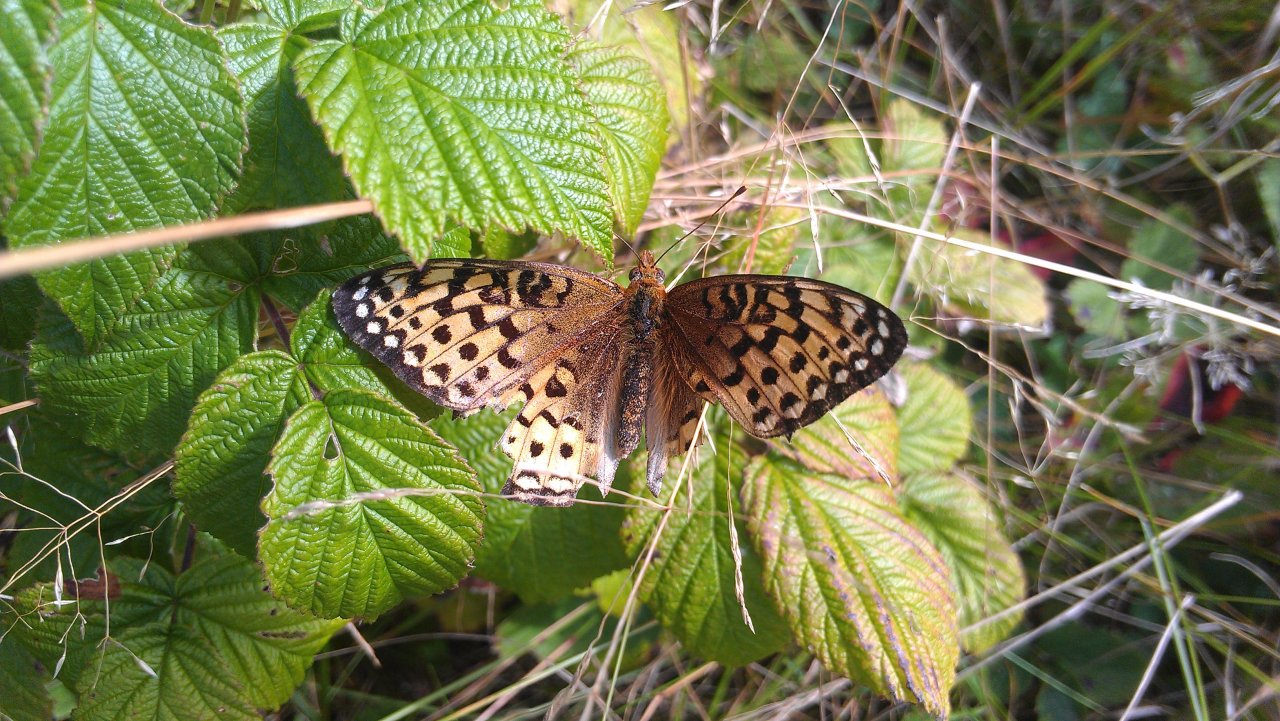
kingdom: Animalia
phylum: Arthropoda
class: Insecta
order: Lepidoptera
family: Nymphalidae
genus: Speyeria
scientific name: Speyeria atlantis
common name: Atlantis Fritillary
